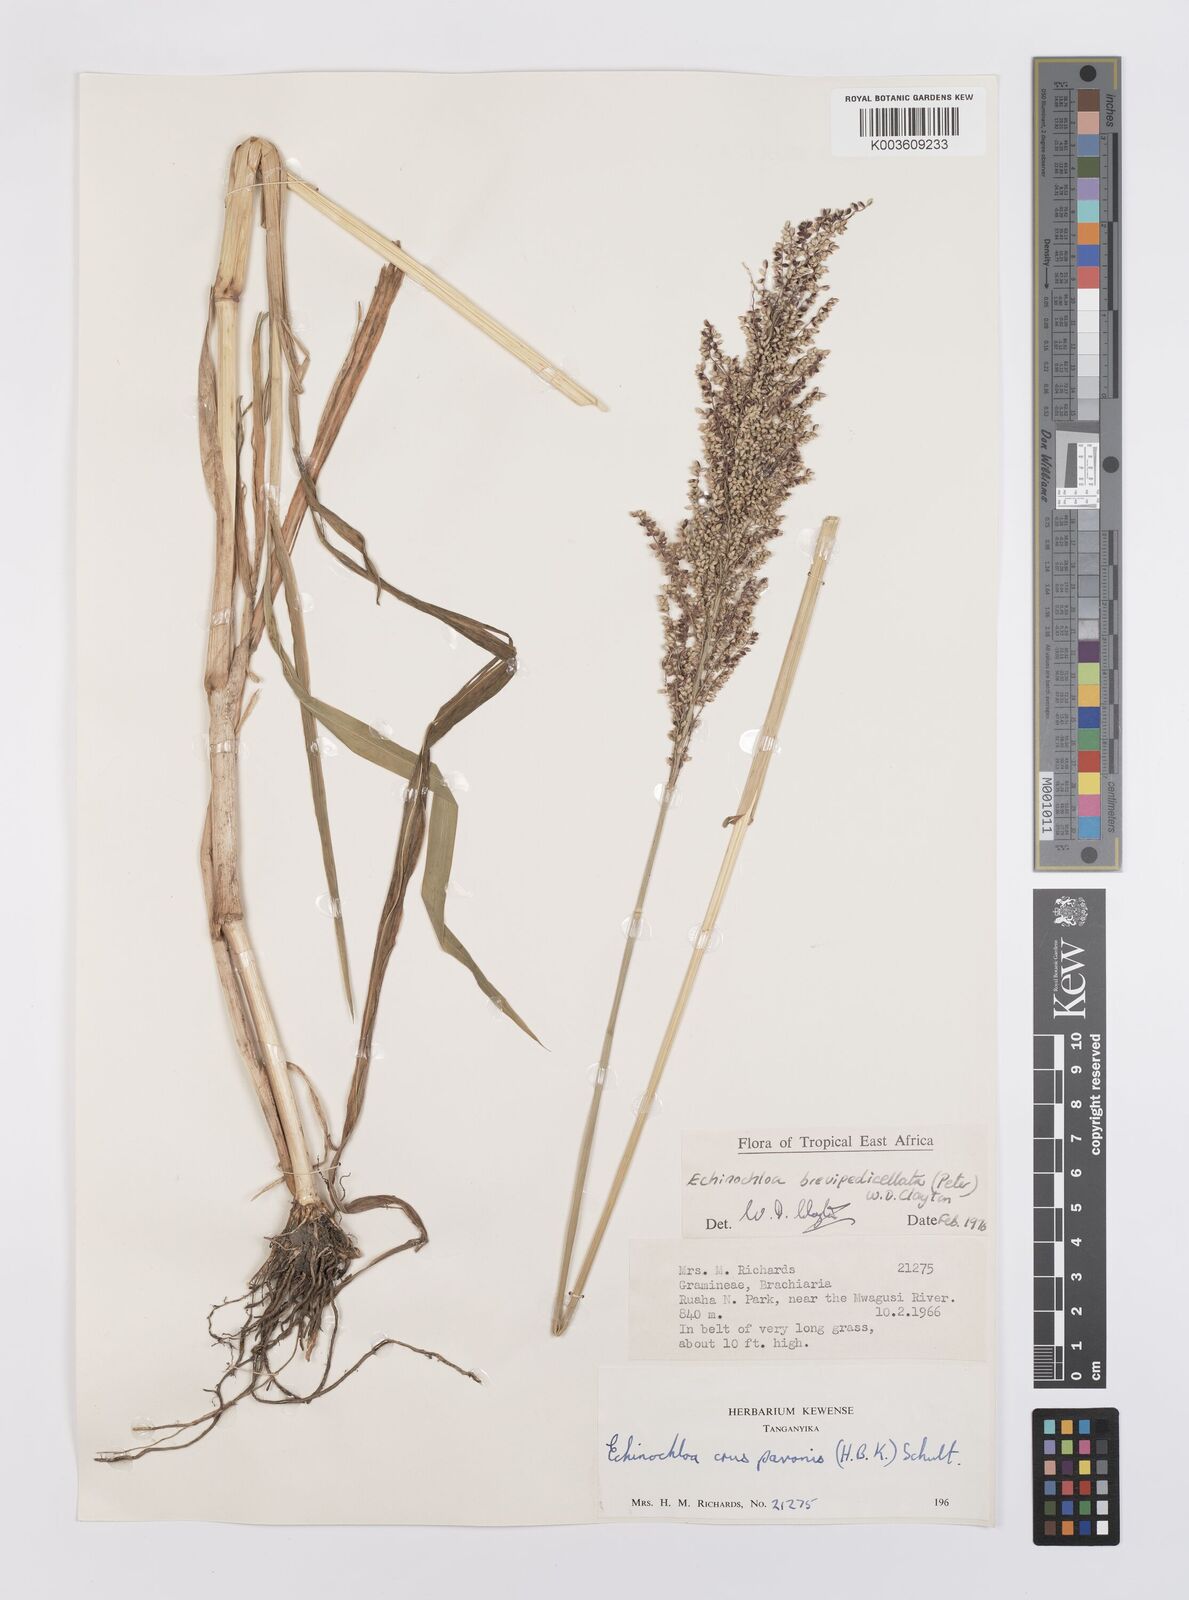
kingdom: Plantae
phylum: Tracheophyta
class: Liliopsida
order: Poales
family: Poaceae
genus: Echinochloa
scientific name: Echinochloa brevipedicellata
